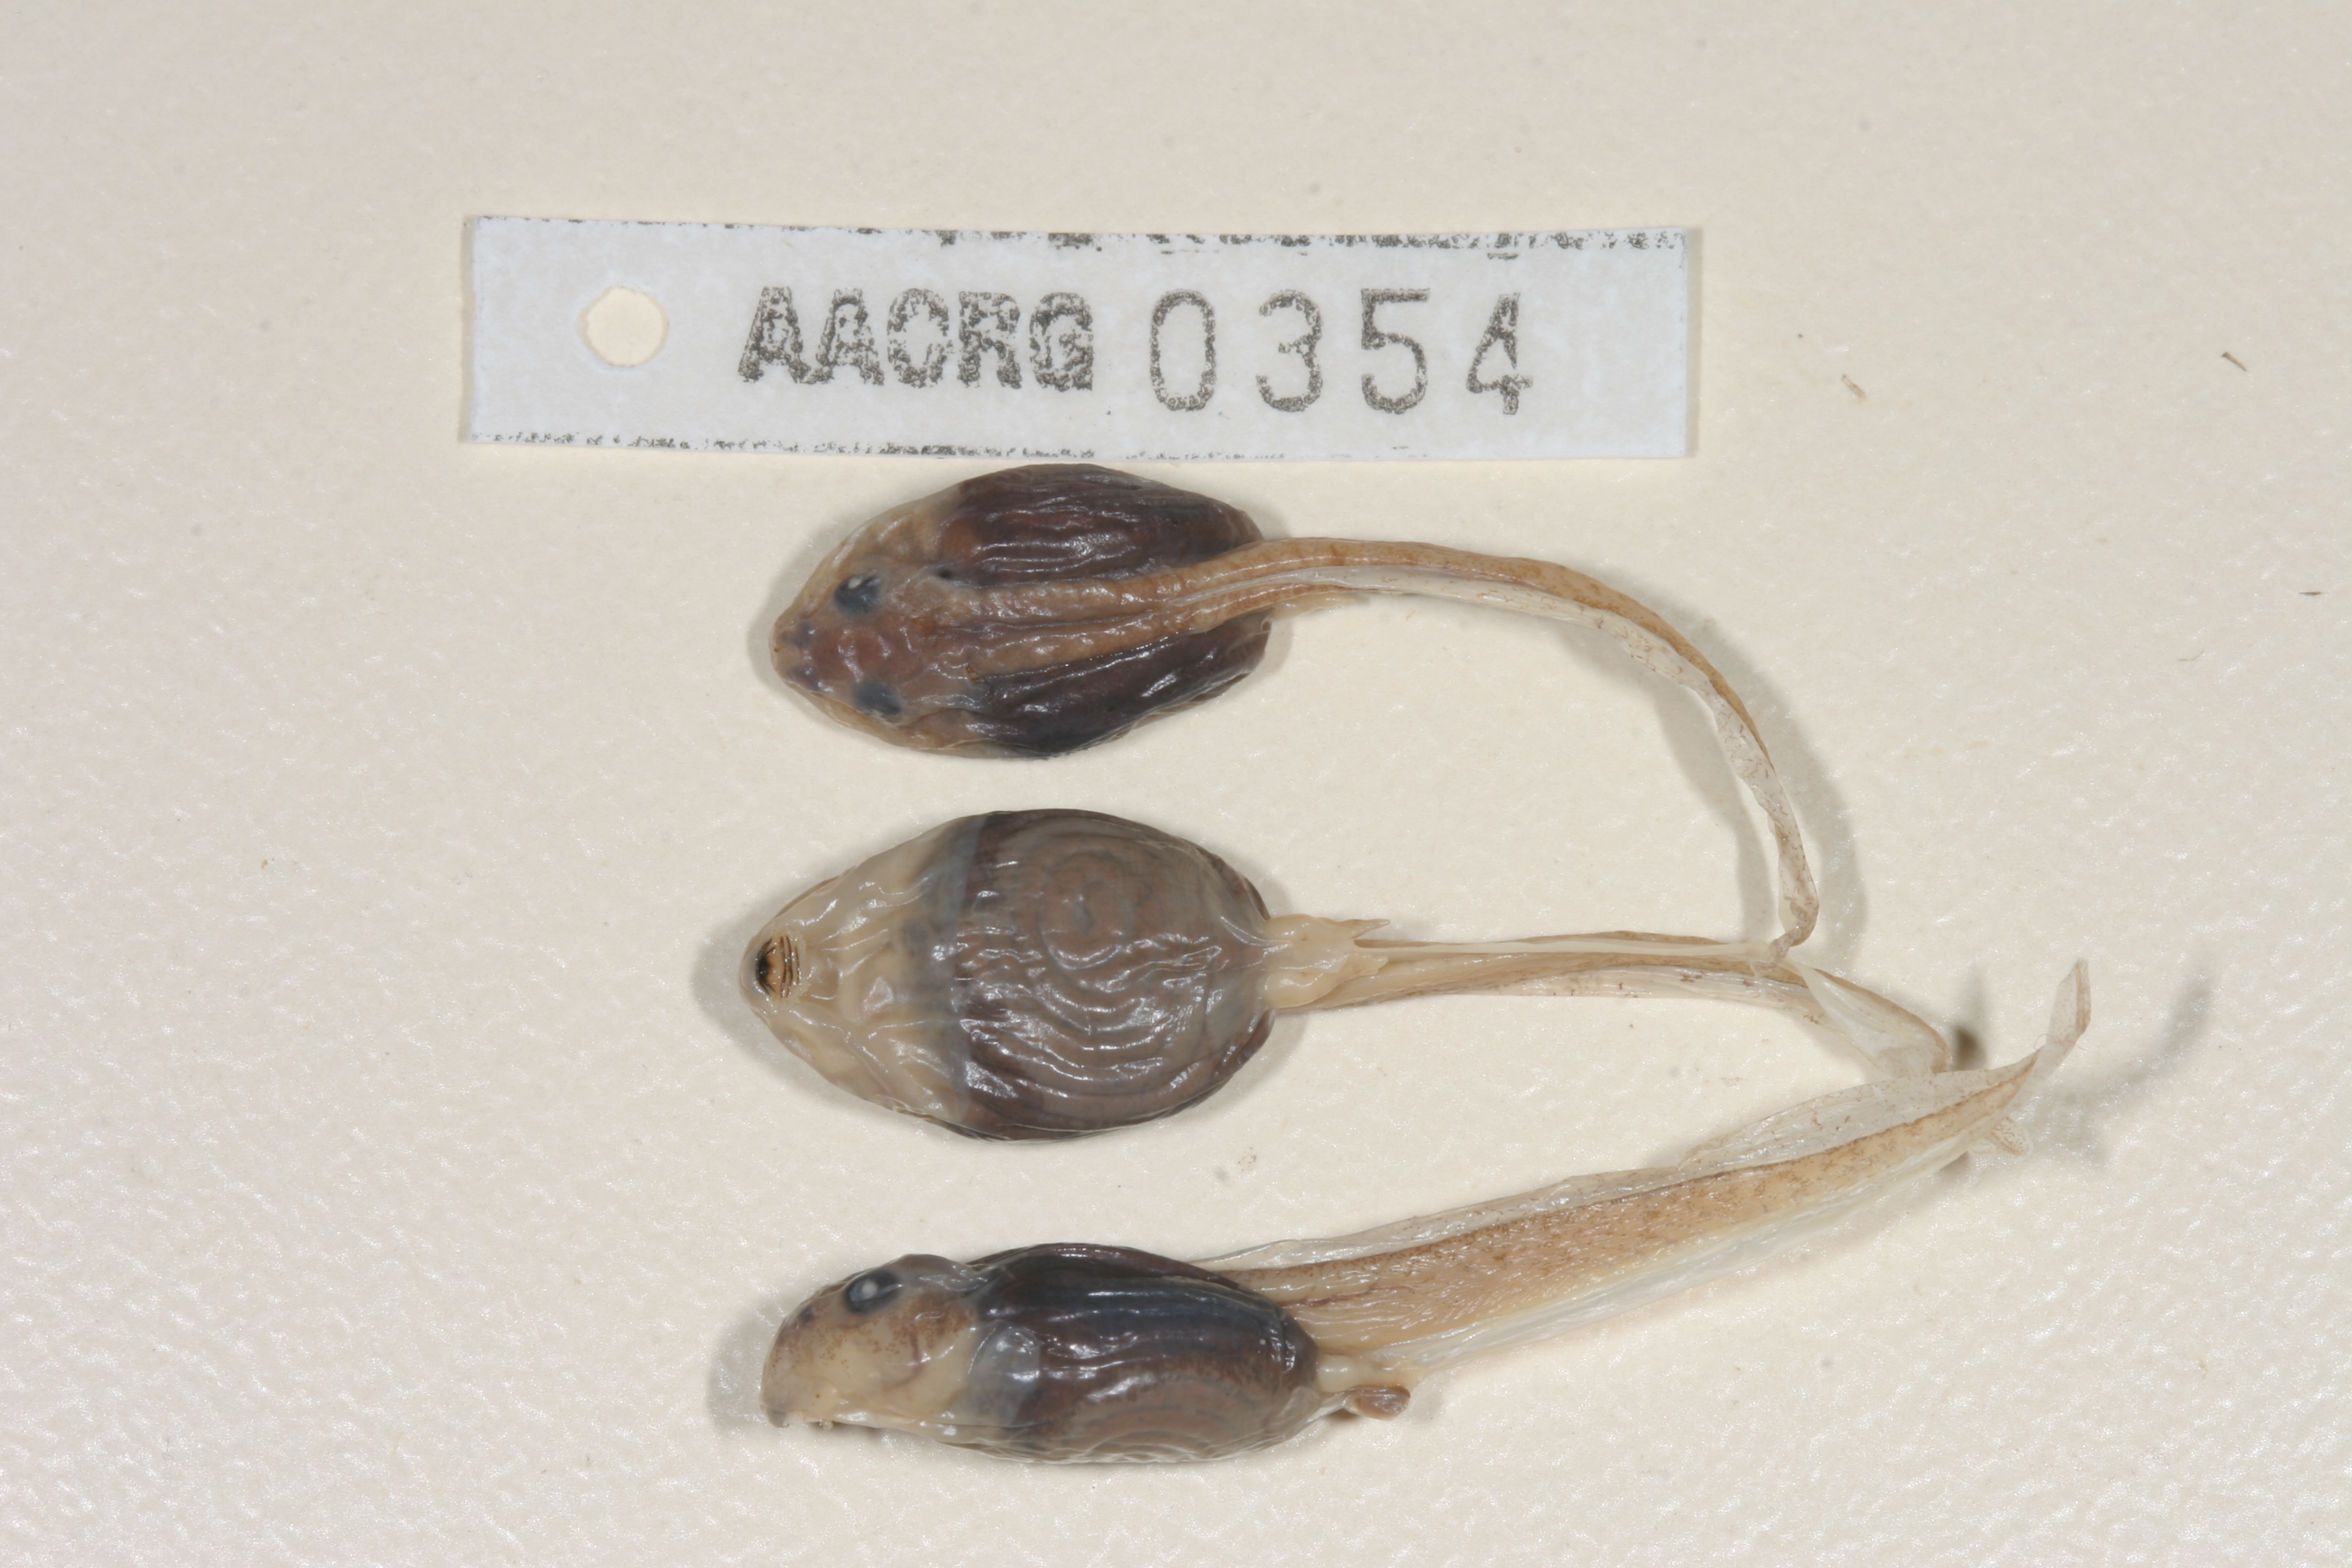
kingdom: Animalia
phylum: Chordata
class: Amphibia
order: Anura
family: Pyxicephalidae
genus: Tomopterna
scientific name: Tomopterna natalensis
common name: Natal sand frog
